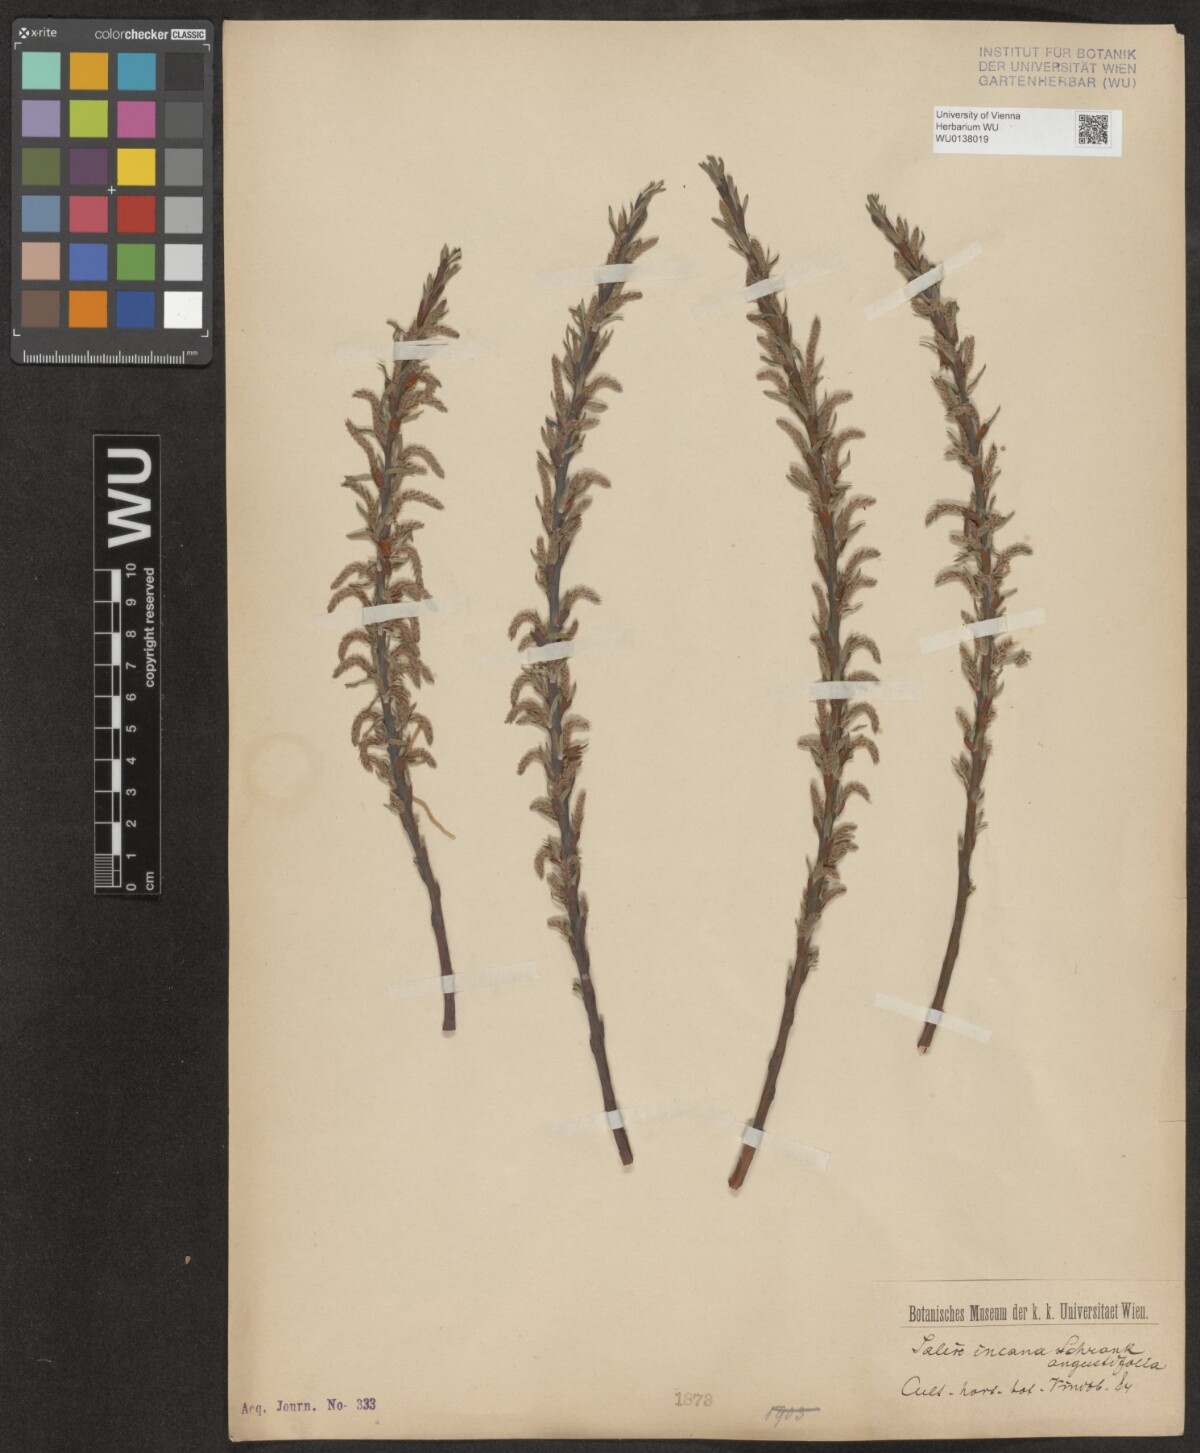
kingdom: Plantae
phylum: Tracheophyta
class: Magnoliopsida
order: Malpighiales
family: Salicaceae
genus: Salix
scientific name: Salix eleagnos
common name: Elaeagnus willow
